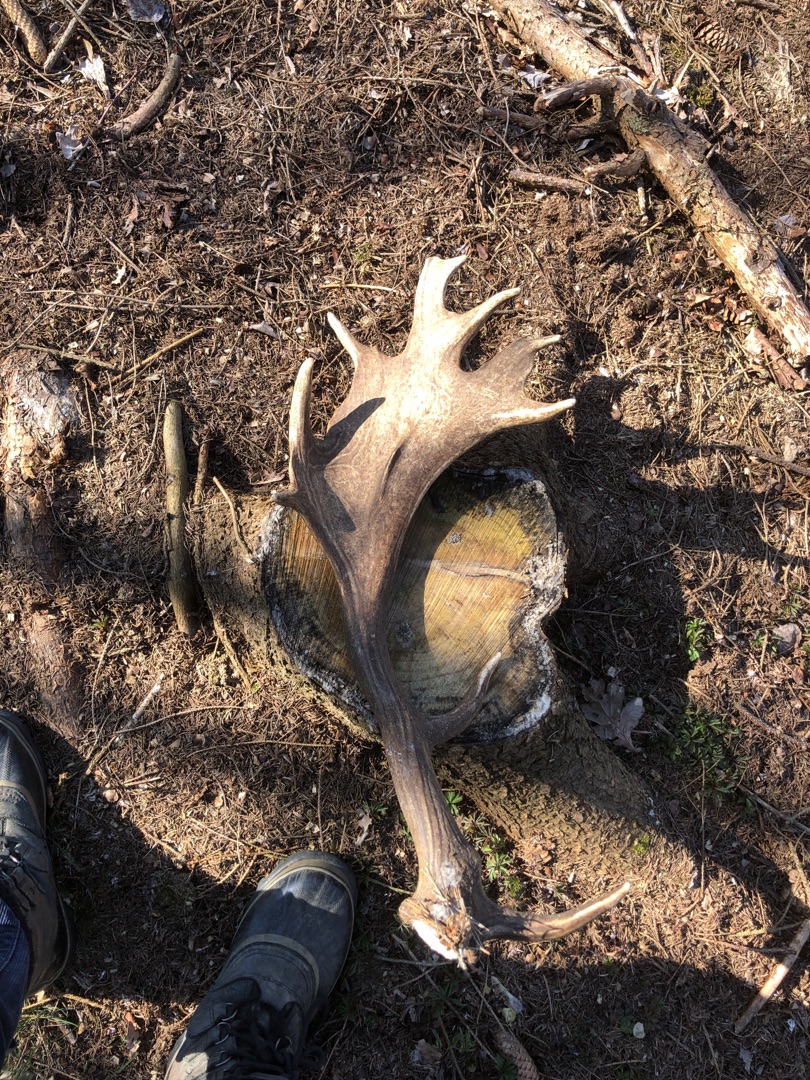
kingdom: Animalia
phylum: Chordata
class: Mammalia
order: Artiodactyla
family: Cervidae
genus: Dama
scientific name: Dama dama
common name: Dådyr
